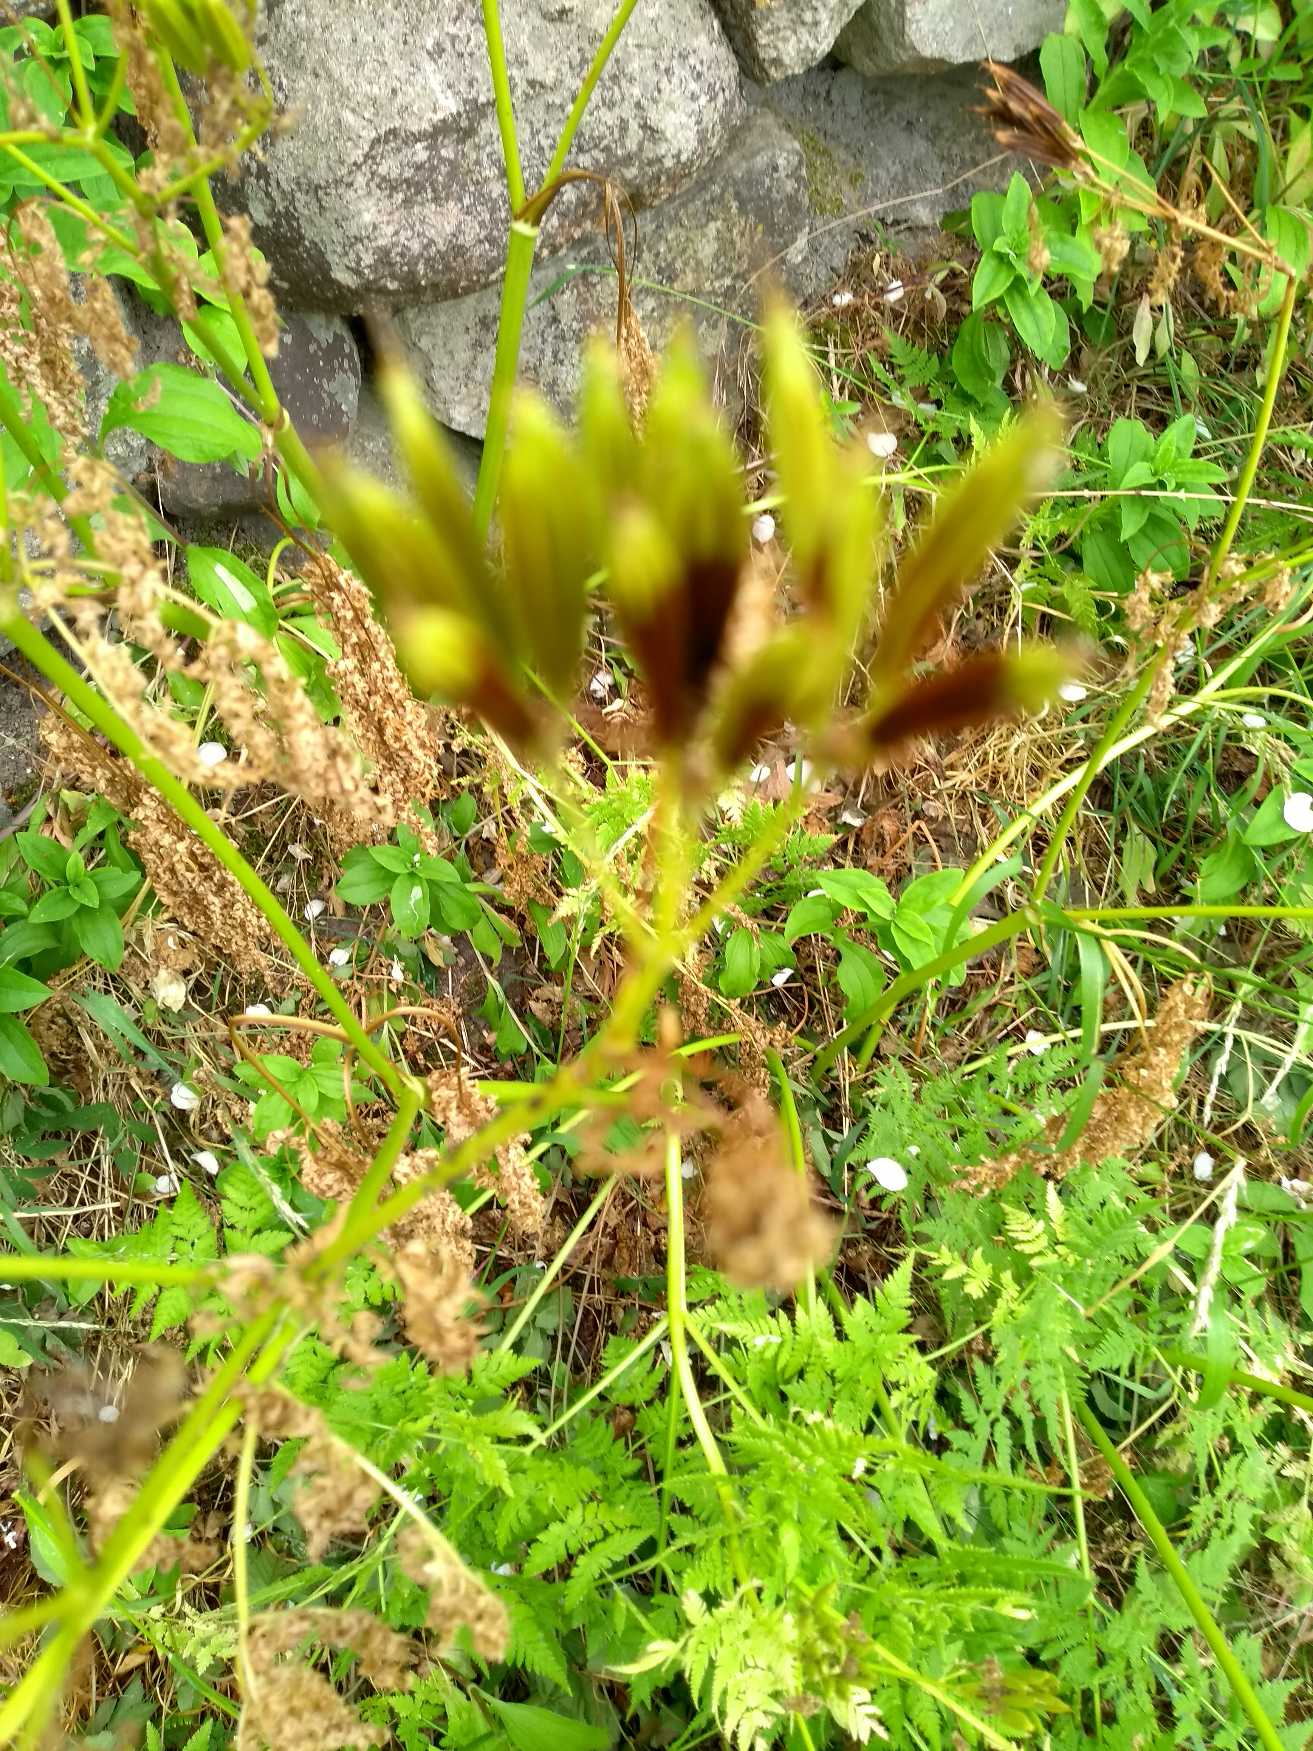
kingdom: Plantae
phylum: Tracheophyta
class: Magnoliopsida
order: Apiales
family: Apiaceae
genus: Myrrhis
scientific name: Myrrhis odorata
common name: Sødskærm
